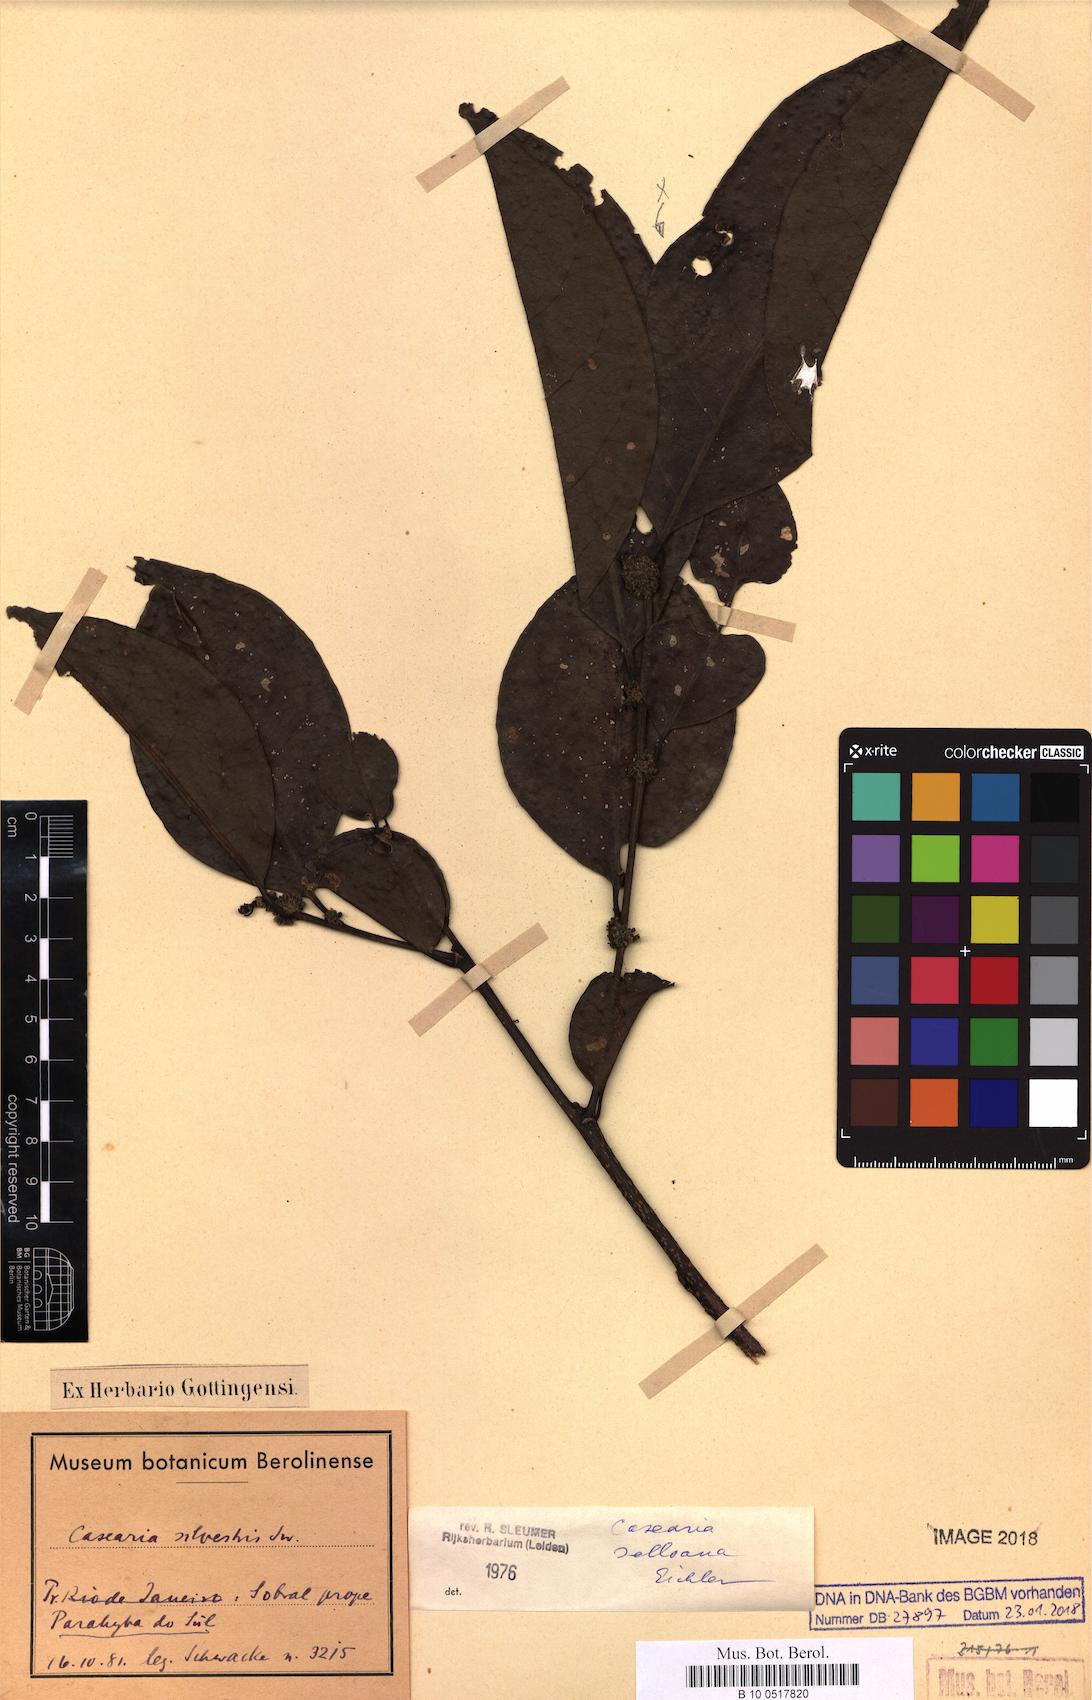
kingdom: Plantae
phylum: Tracheophyta
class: Magnoliopsida
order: Malpighiales
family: Salicaceae
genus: Casearia
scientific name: Casearia selloana
